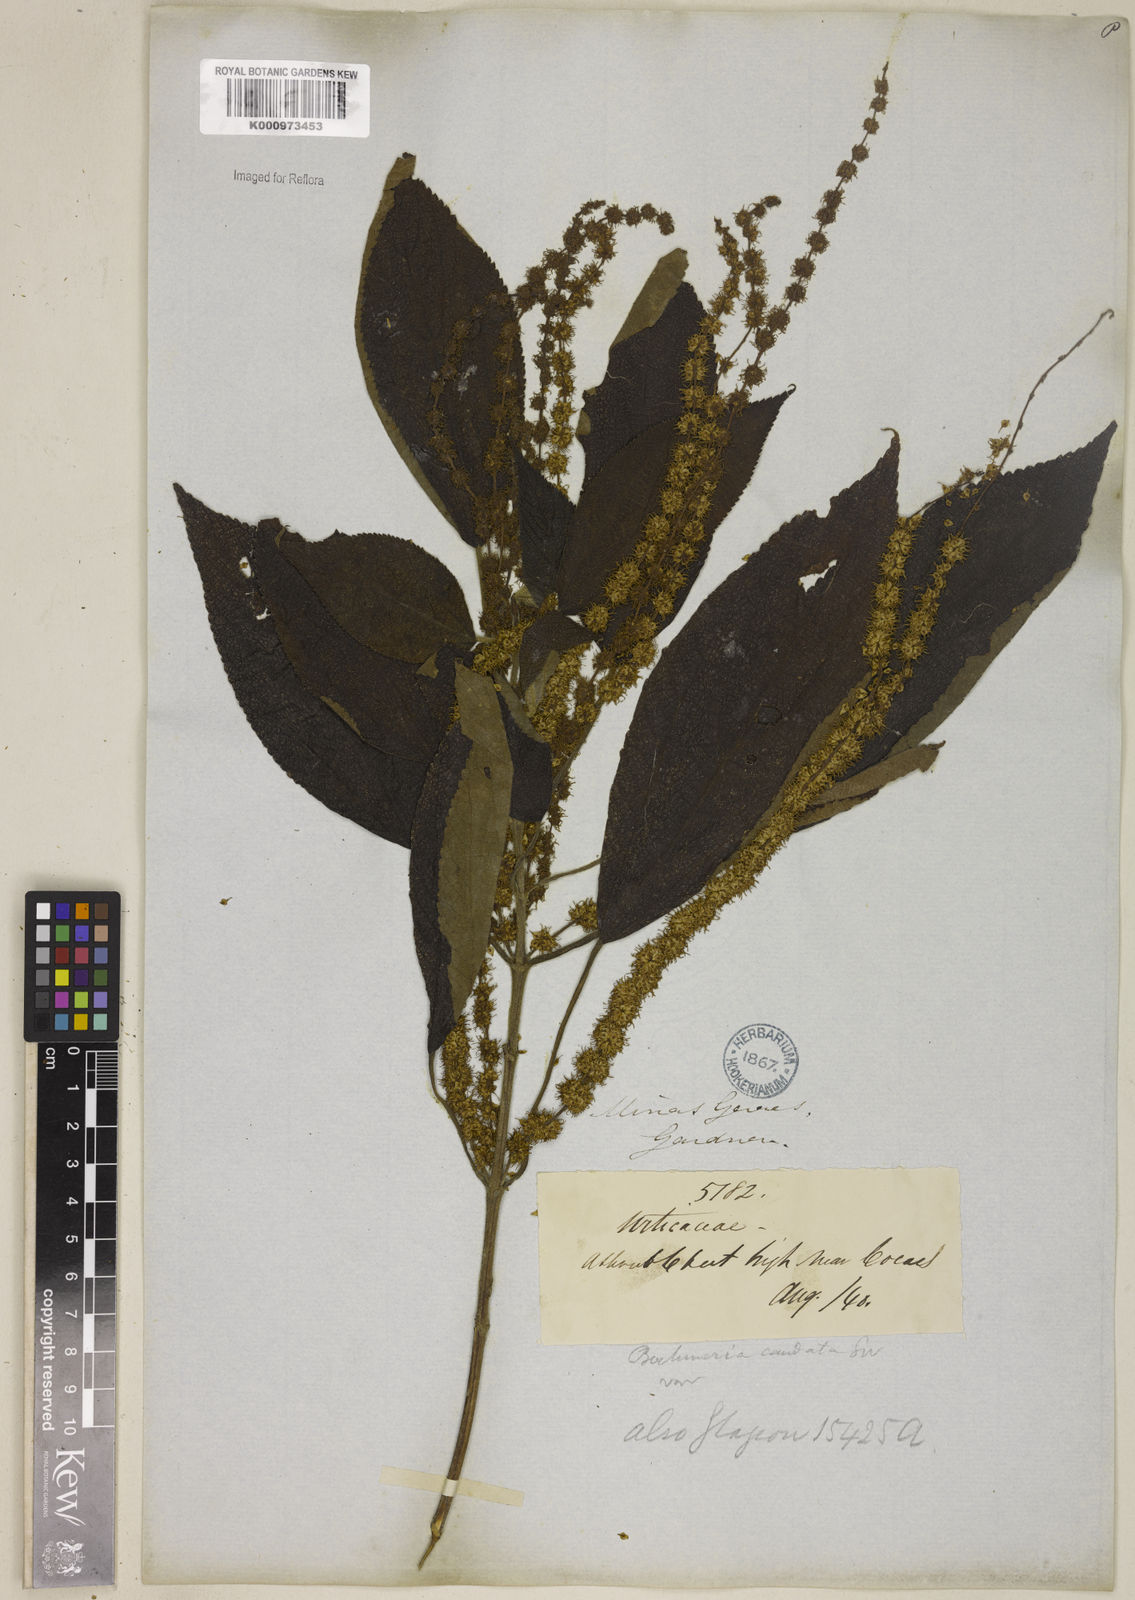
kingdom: Plantae
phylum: Tracheophyta
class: Magnoliopsida
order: Rosales
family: Urticaceae
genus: Boehmeria
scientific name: Boehmeria caudata
